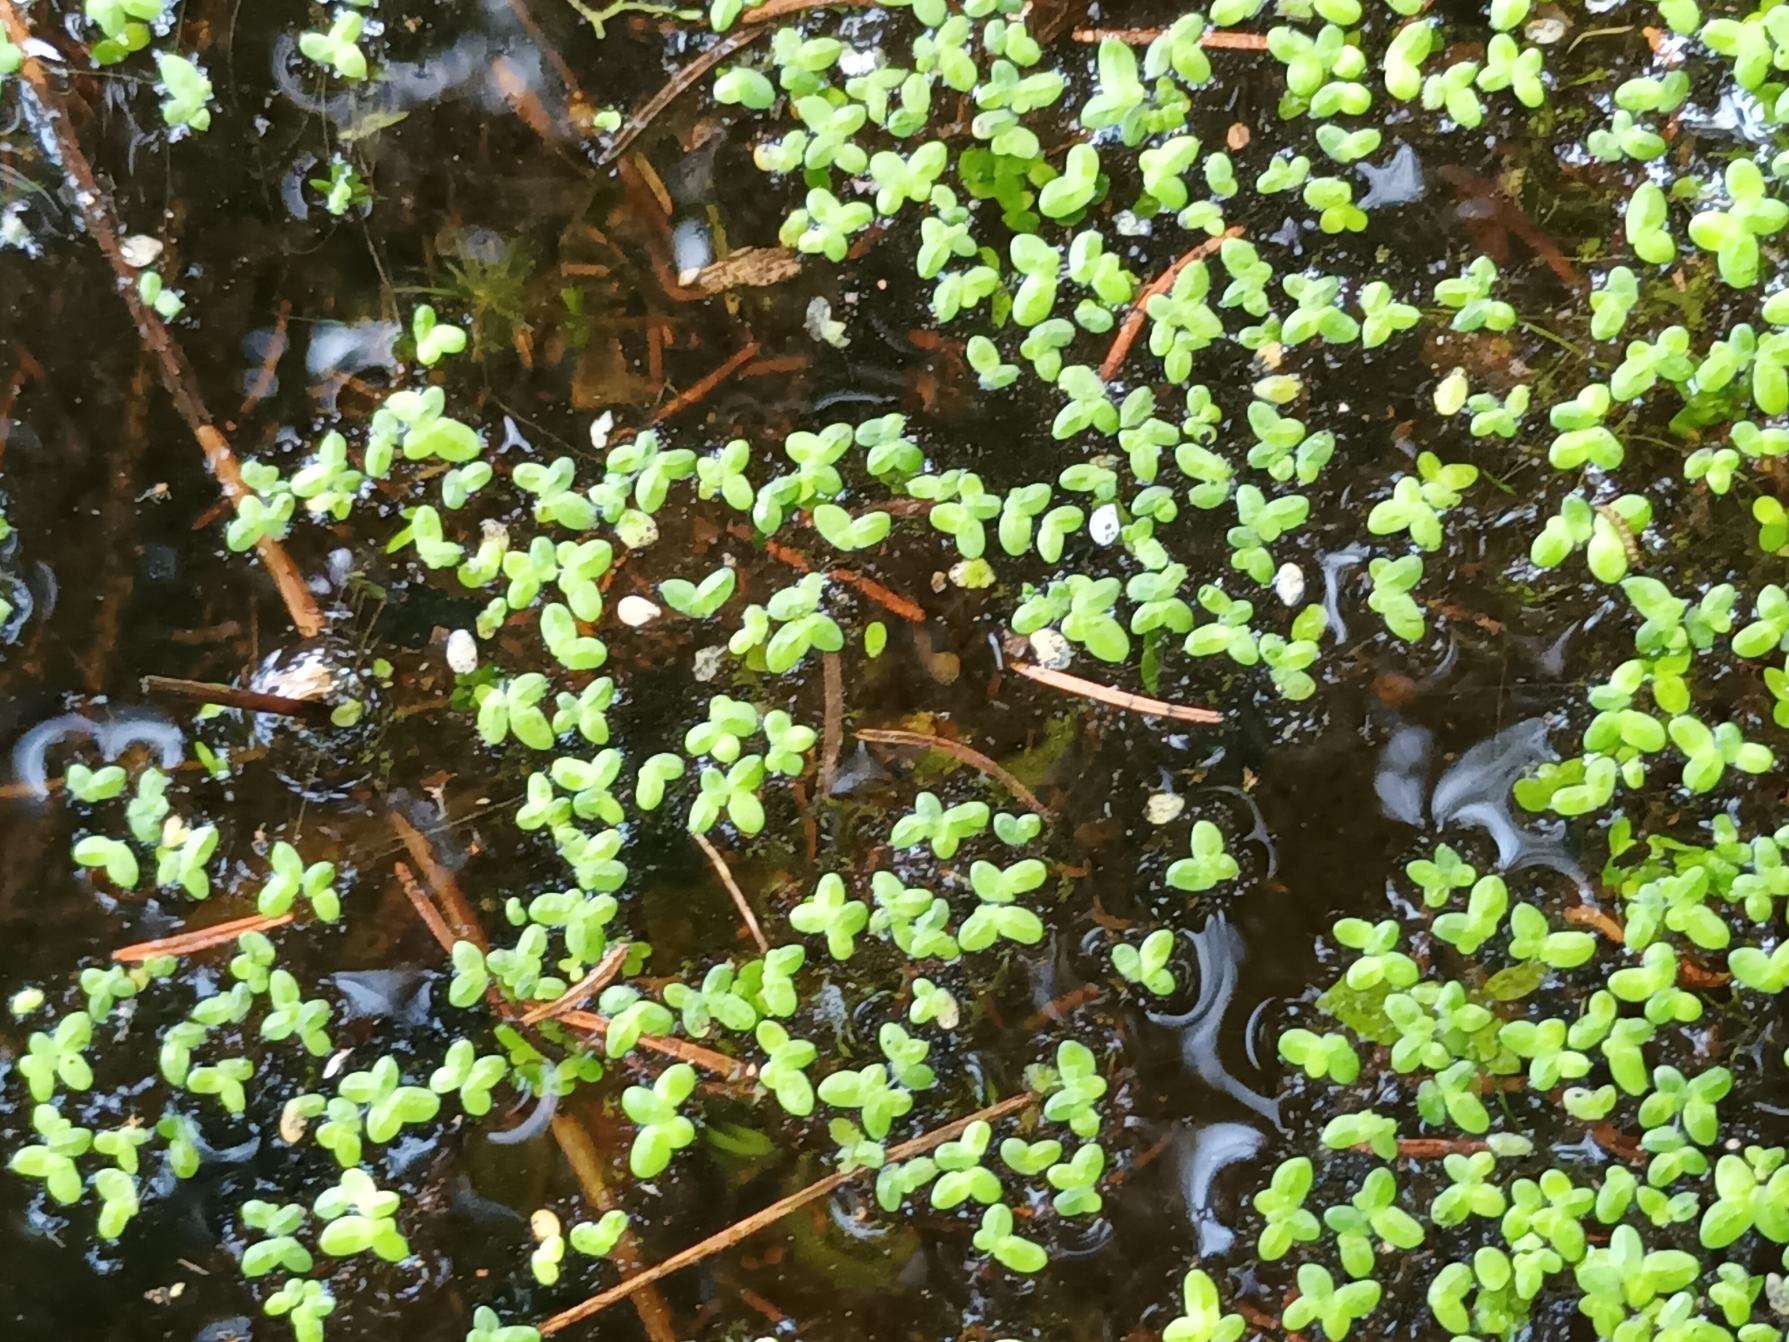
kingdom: Plantae
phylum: Tracheophyta
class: Liliopsida
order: Alismatales
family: Araceae
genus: Lemna
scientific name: Lemna minor
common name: Liden andemad
